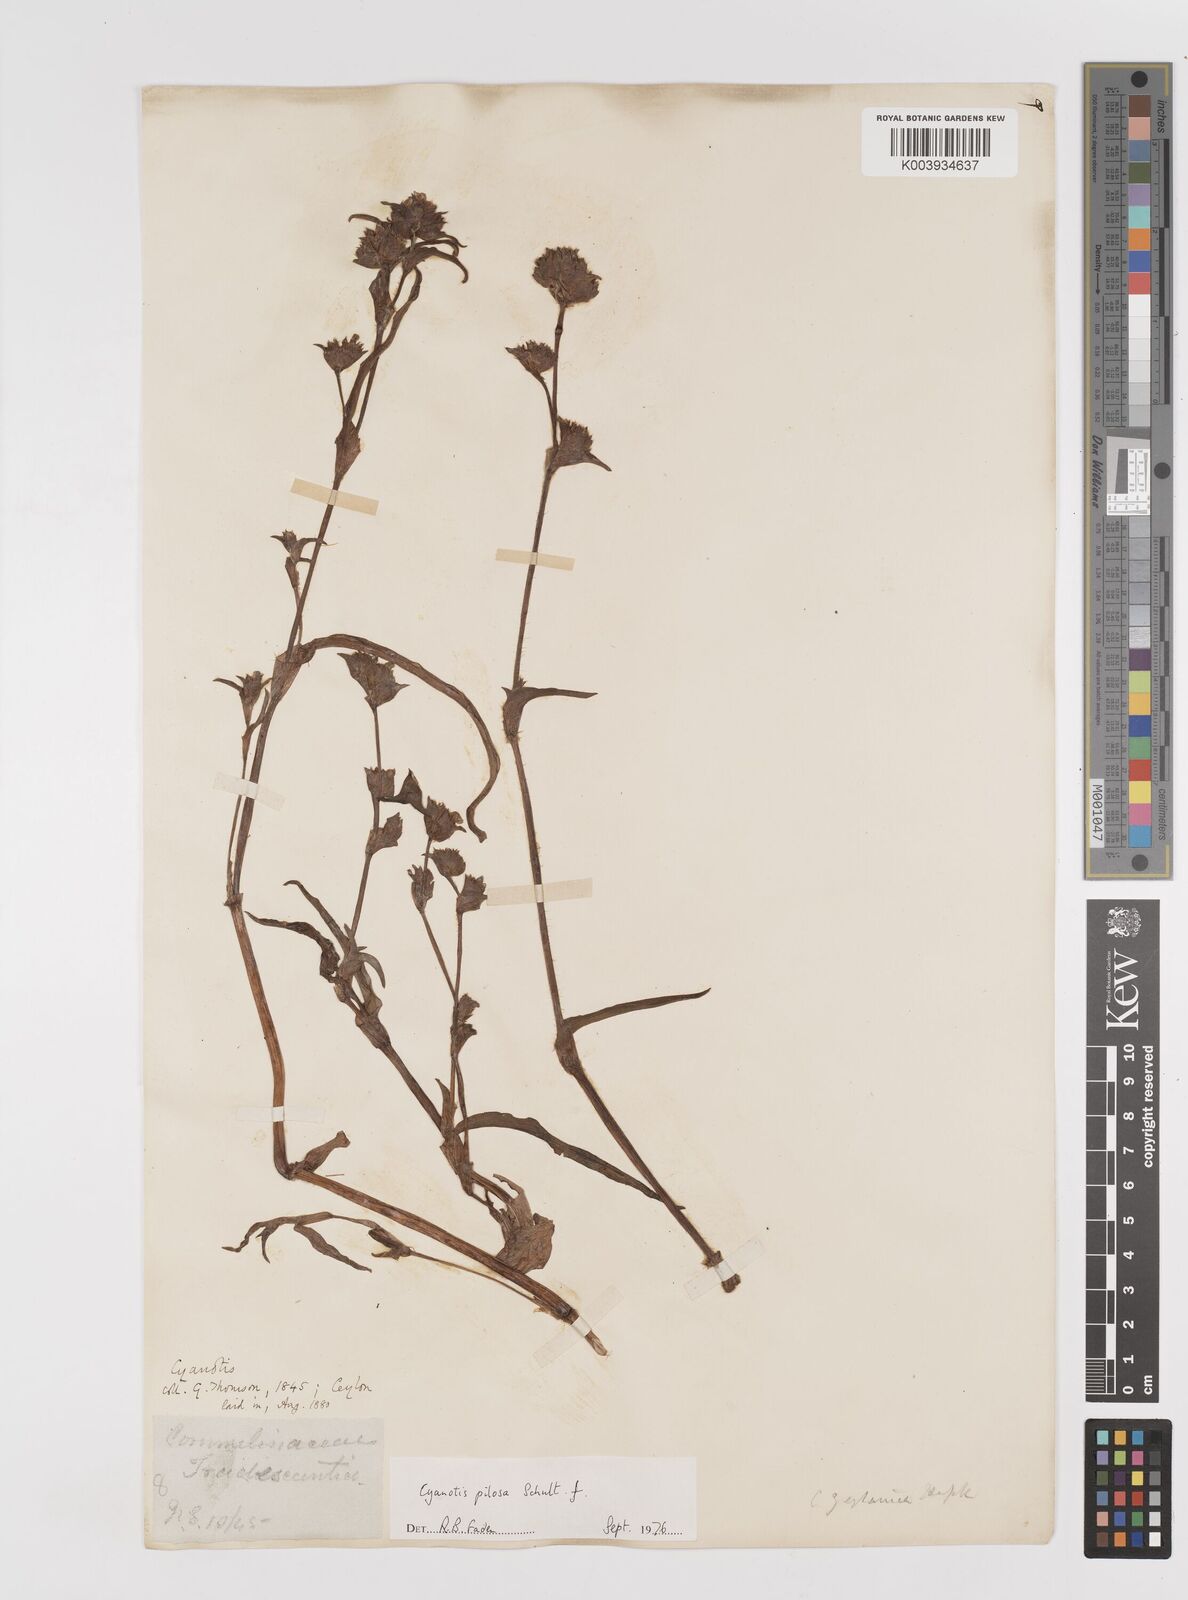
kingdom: Plantae
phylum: Tracheophyta
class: Liliopsida
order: Commelinales
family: Commelinaceae
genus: Cyanotis
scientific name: Cyanotis pilosa
